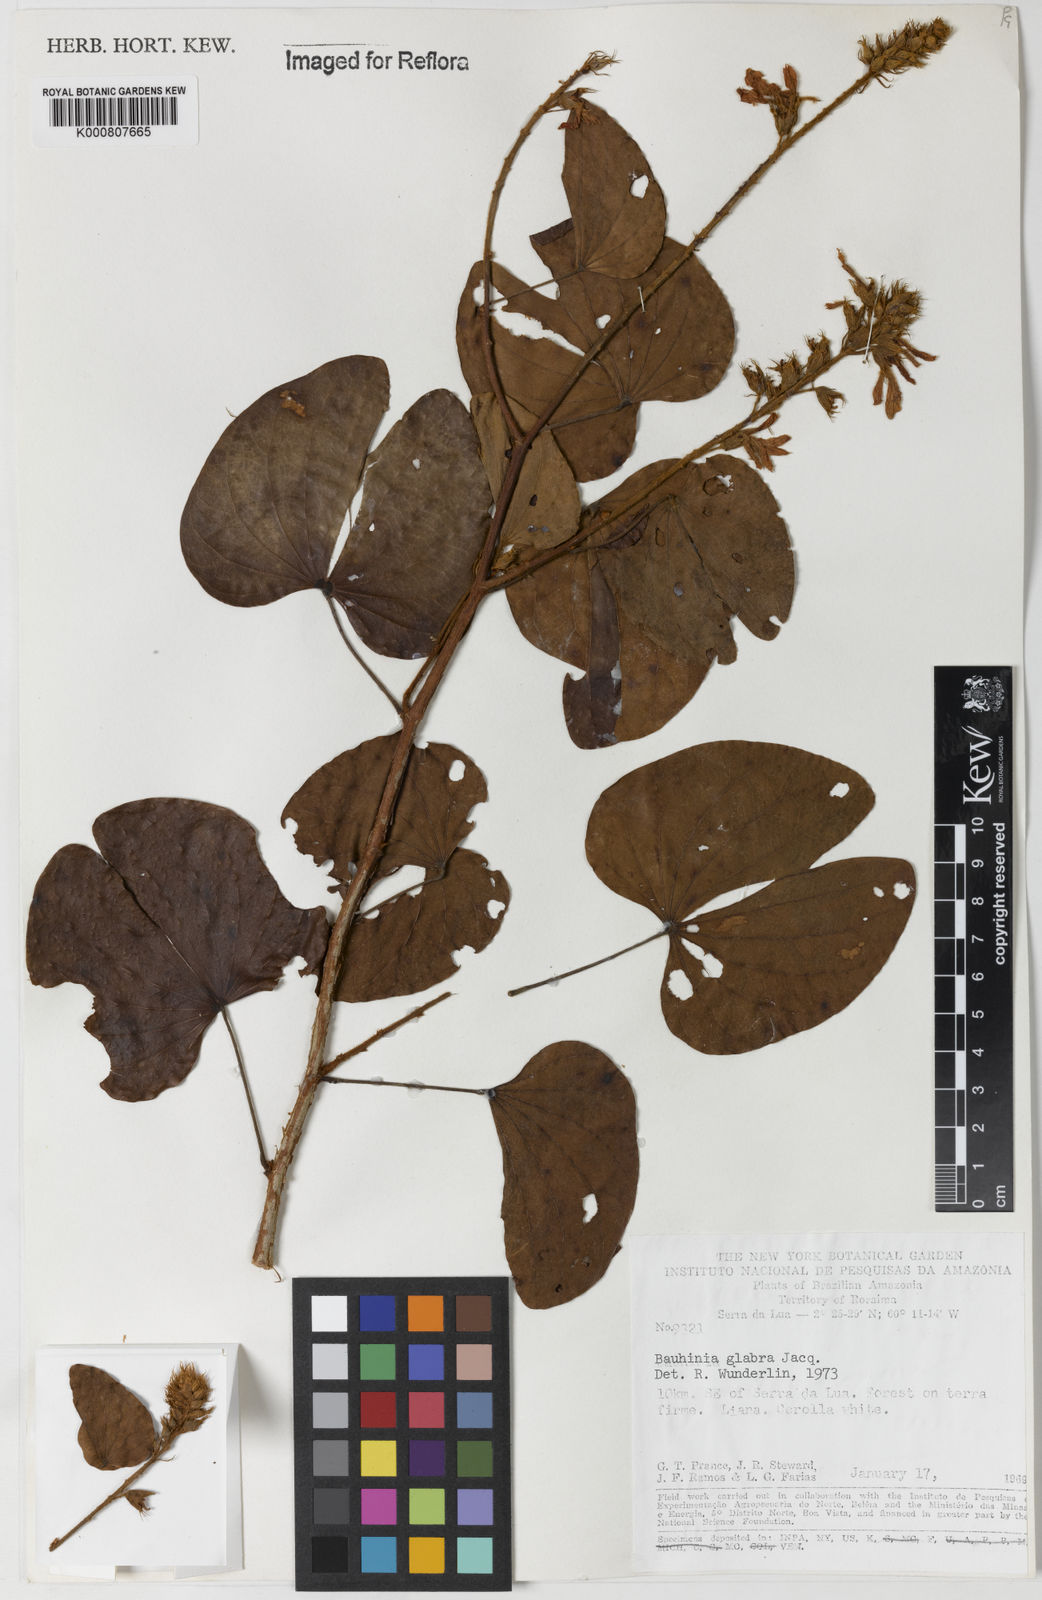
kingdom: Plantae
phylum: Tracheophyta
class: Magnoliopsida
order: Fabales
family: Fabaceae
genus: Schnella
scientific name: Schnella glabra
